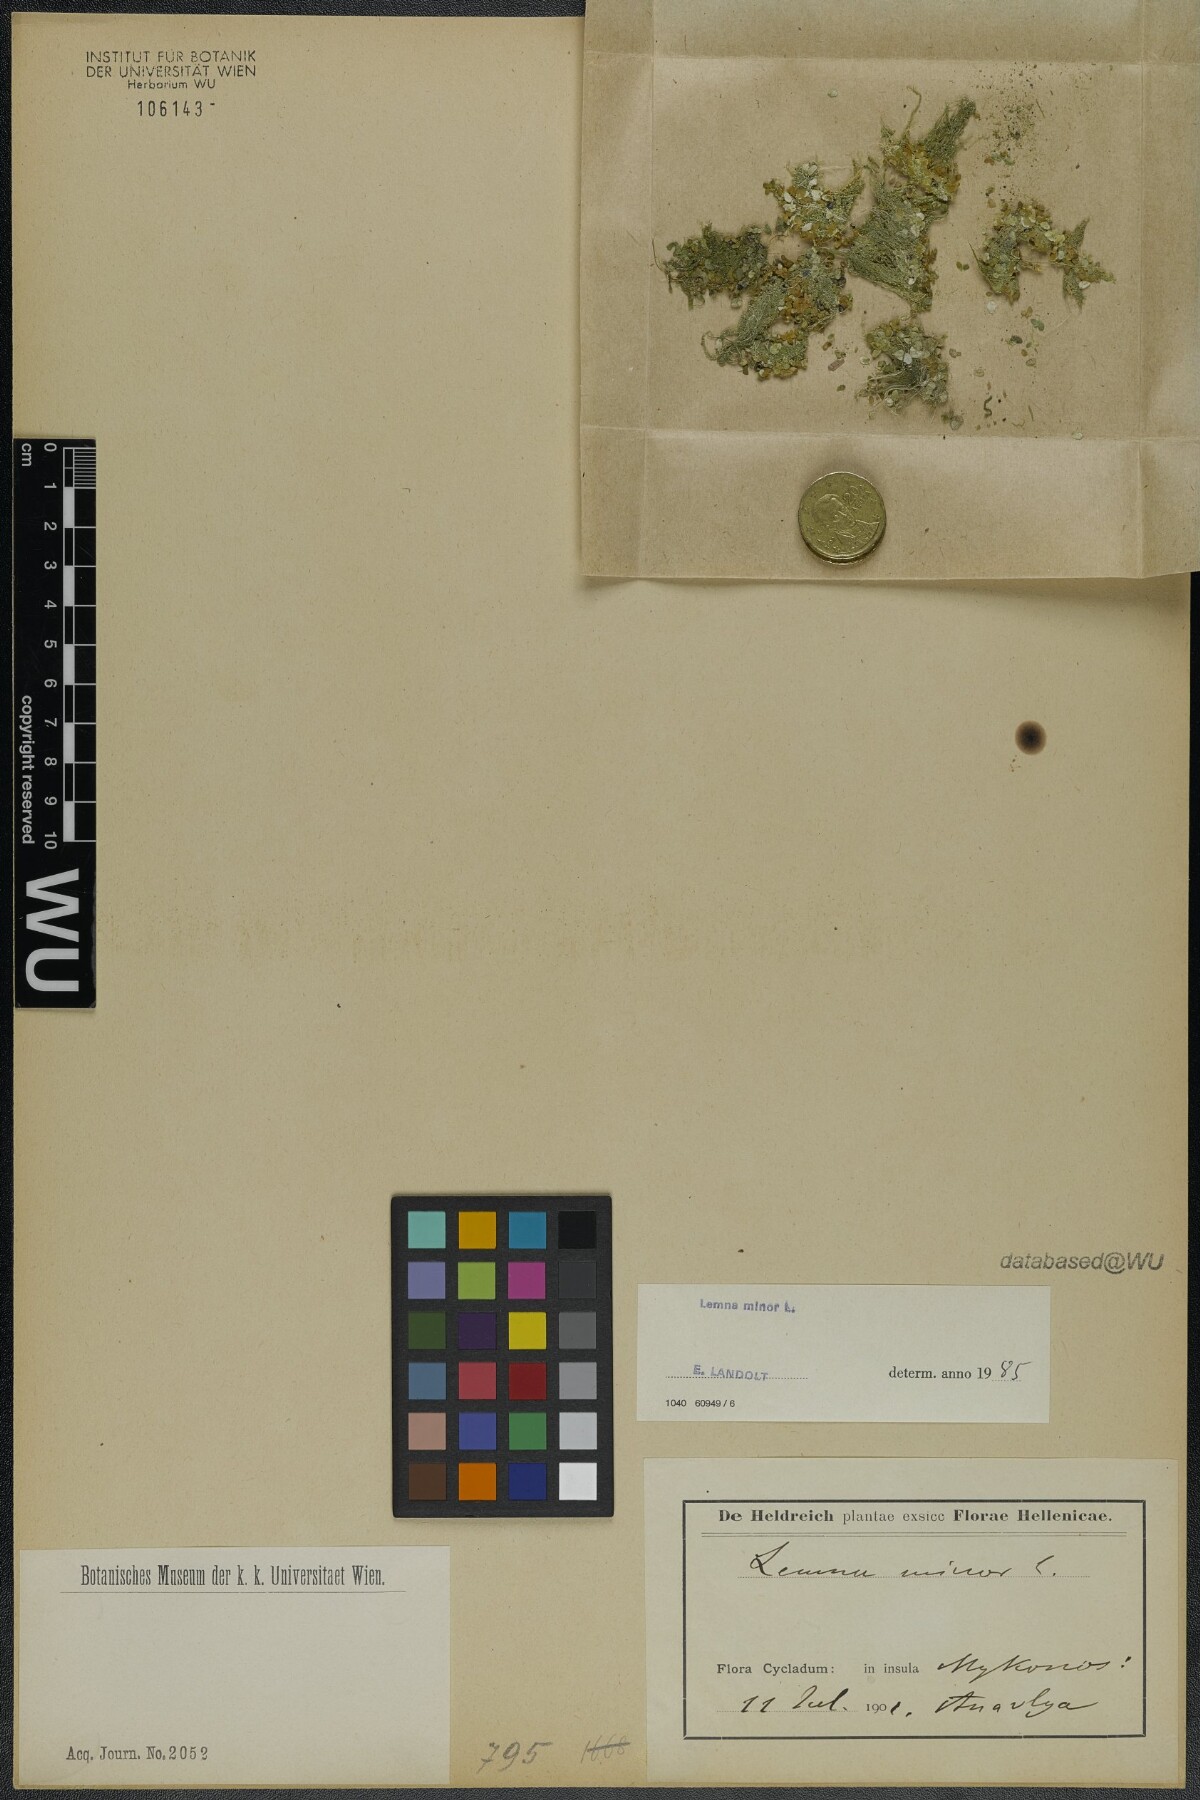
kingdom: Plantae
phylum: Tracheophyta
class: Liliopsida
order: Alismatales
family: Araceae
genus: Lemna
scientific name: Lemna minor
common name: Common duckweed
